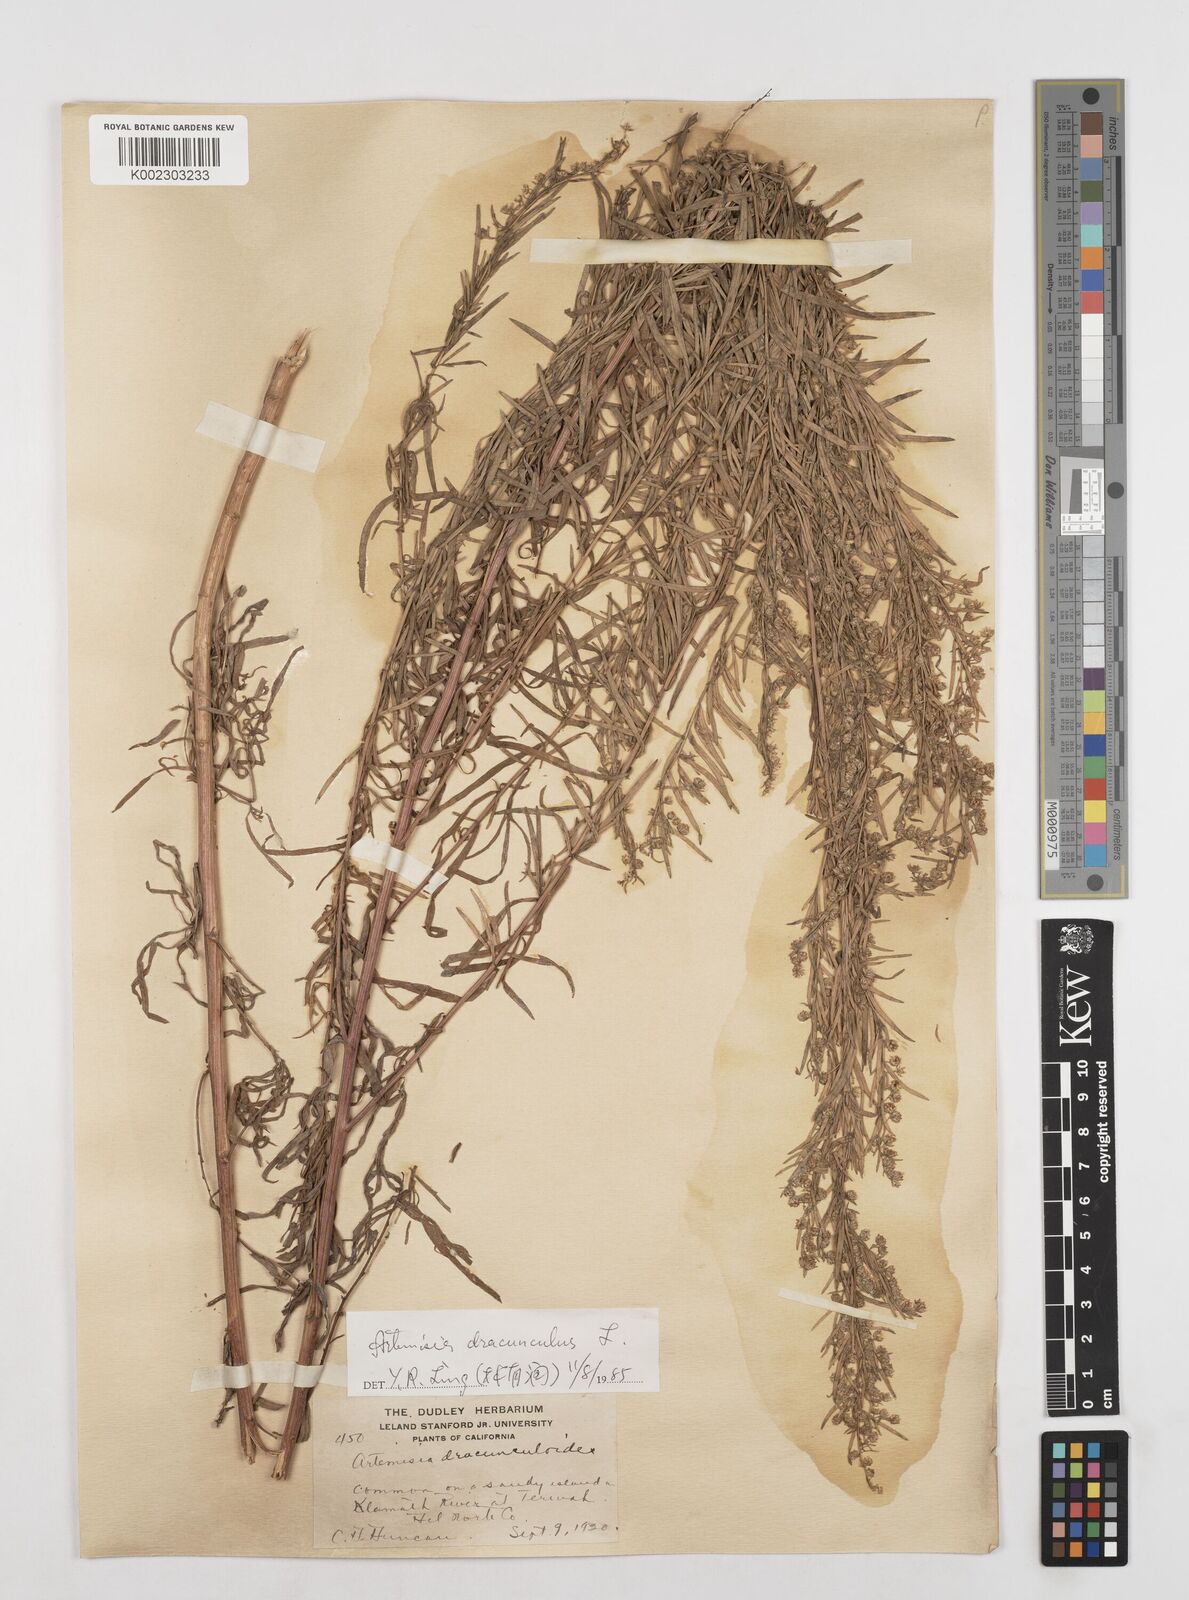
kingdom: Plantae
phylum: Tracheophyta
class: Magnoliopsida
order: Asterales
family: Asteraceae
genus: Artemisia
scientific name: Artemisia dracunculus
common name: Tarragon
